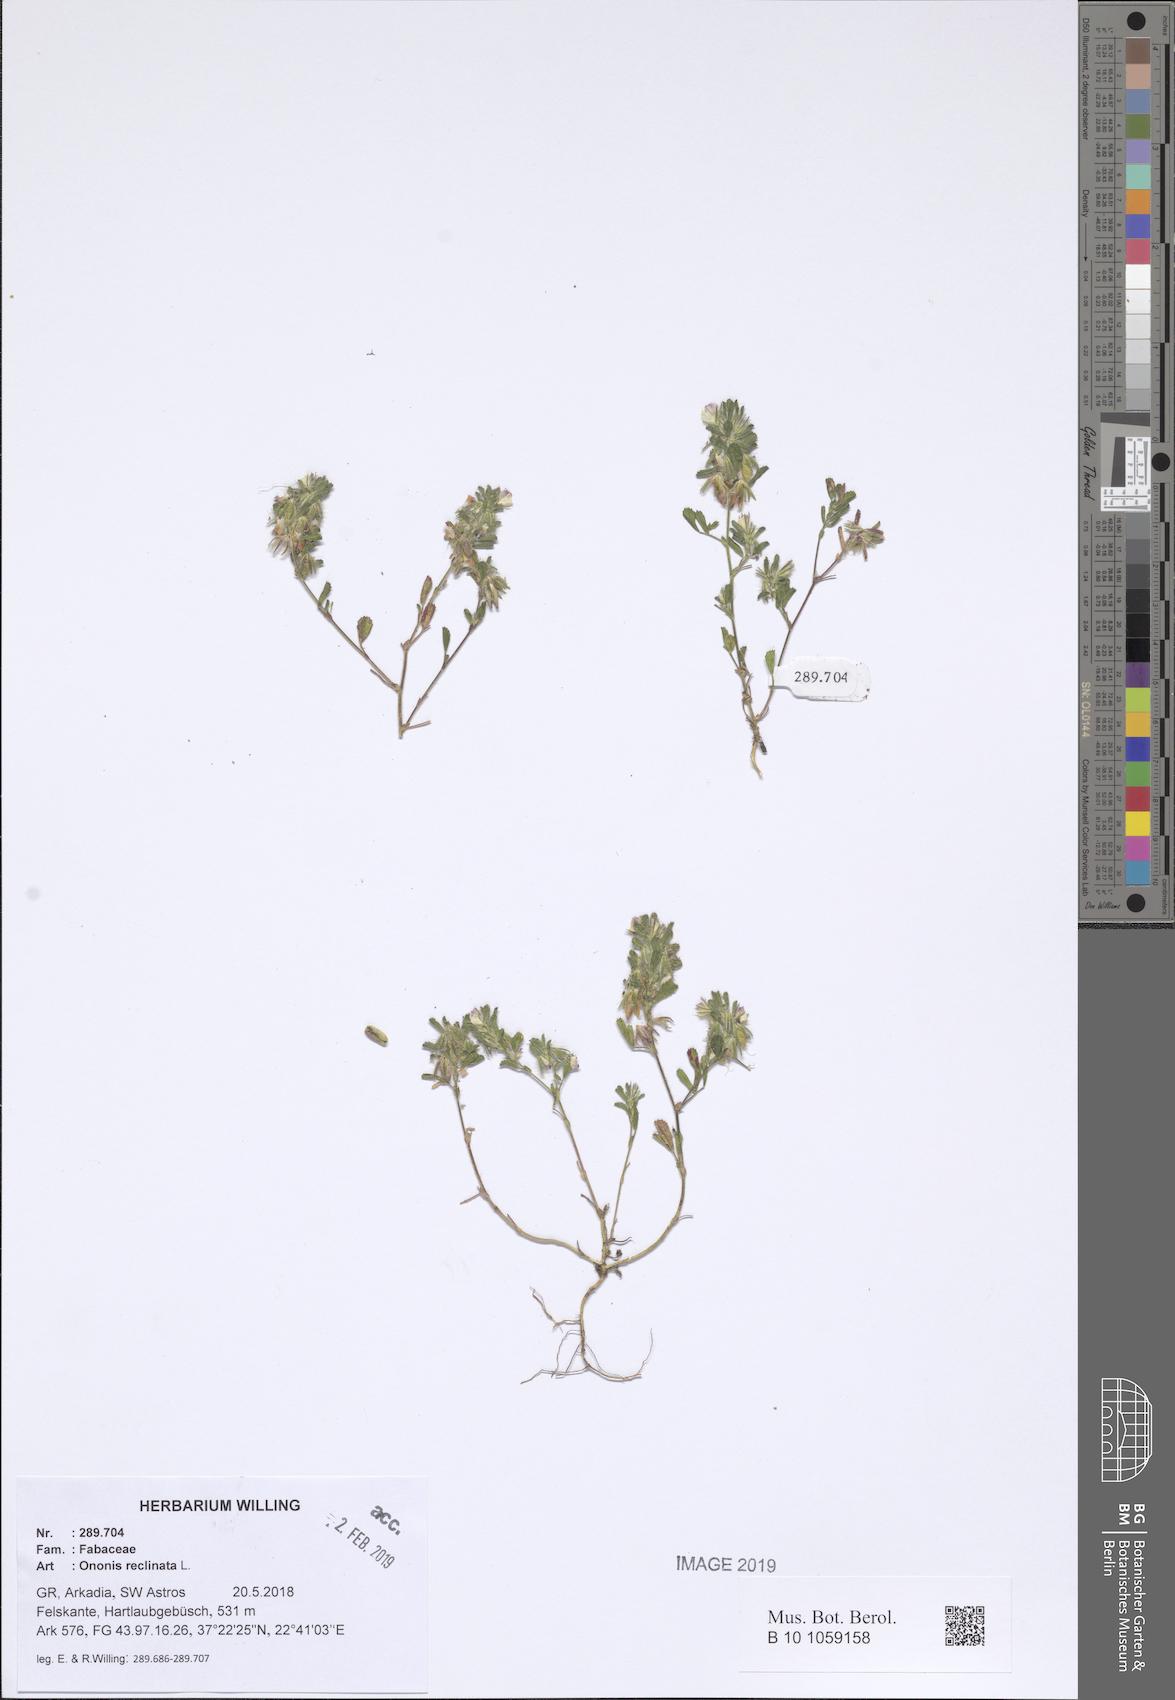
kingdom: Plantae
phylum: Tracheophyta
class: Magnoliopsida
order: Fabales
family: Fabaceae
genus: Ononis
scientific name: Ononis reclinata
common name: Small restharrow
